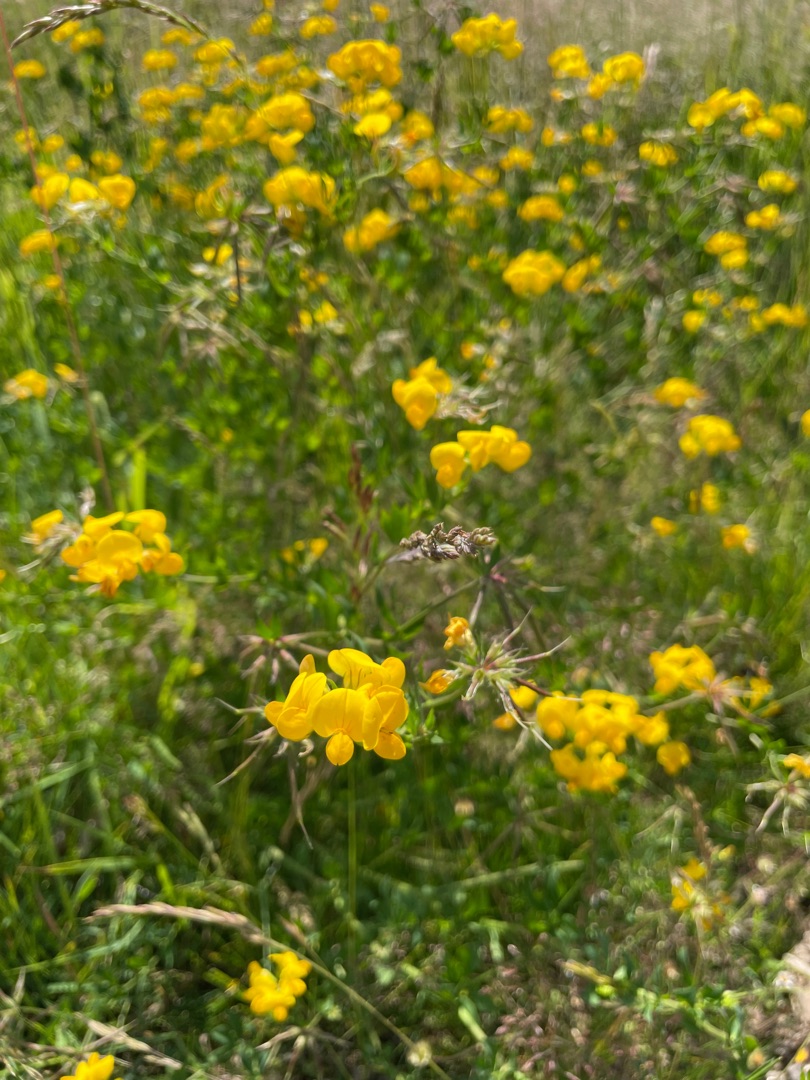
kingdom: Plantae
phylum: Tracheophyta
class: Magnoliopsida
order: Fabales
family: Fabaceae
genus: Lotus
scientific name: Lotus corniculatus
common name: Almindelig kællingetand
